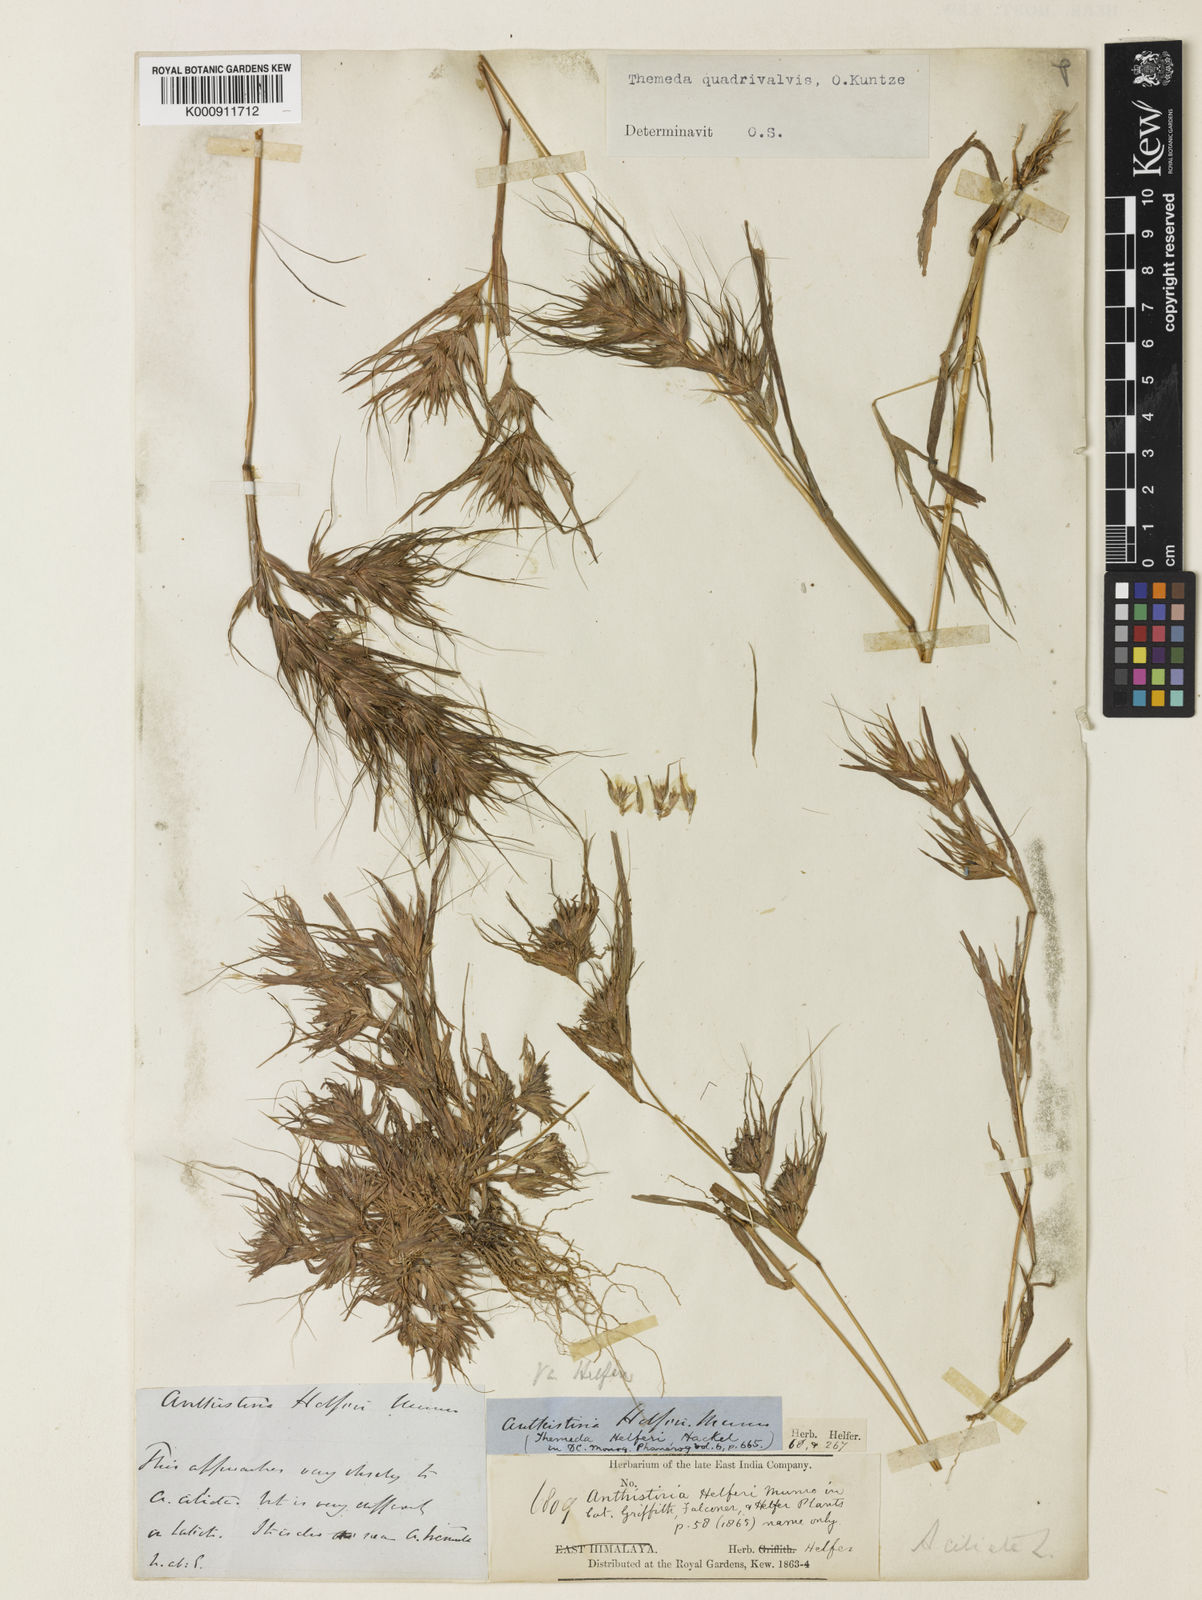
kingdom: Plantae
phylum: Tracheophyta
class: Liliopsida
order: Poales
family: Poaceae
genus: Themeda
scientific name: Themeda helferi
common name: Kangaroo grass
